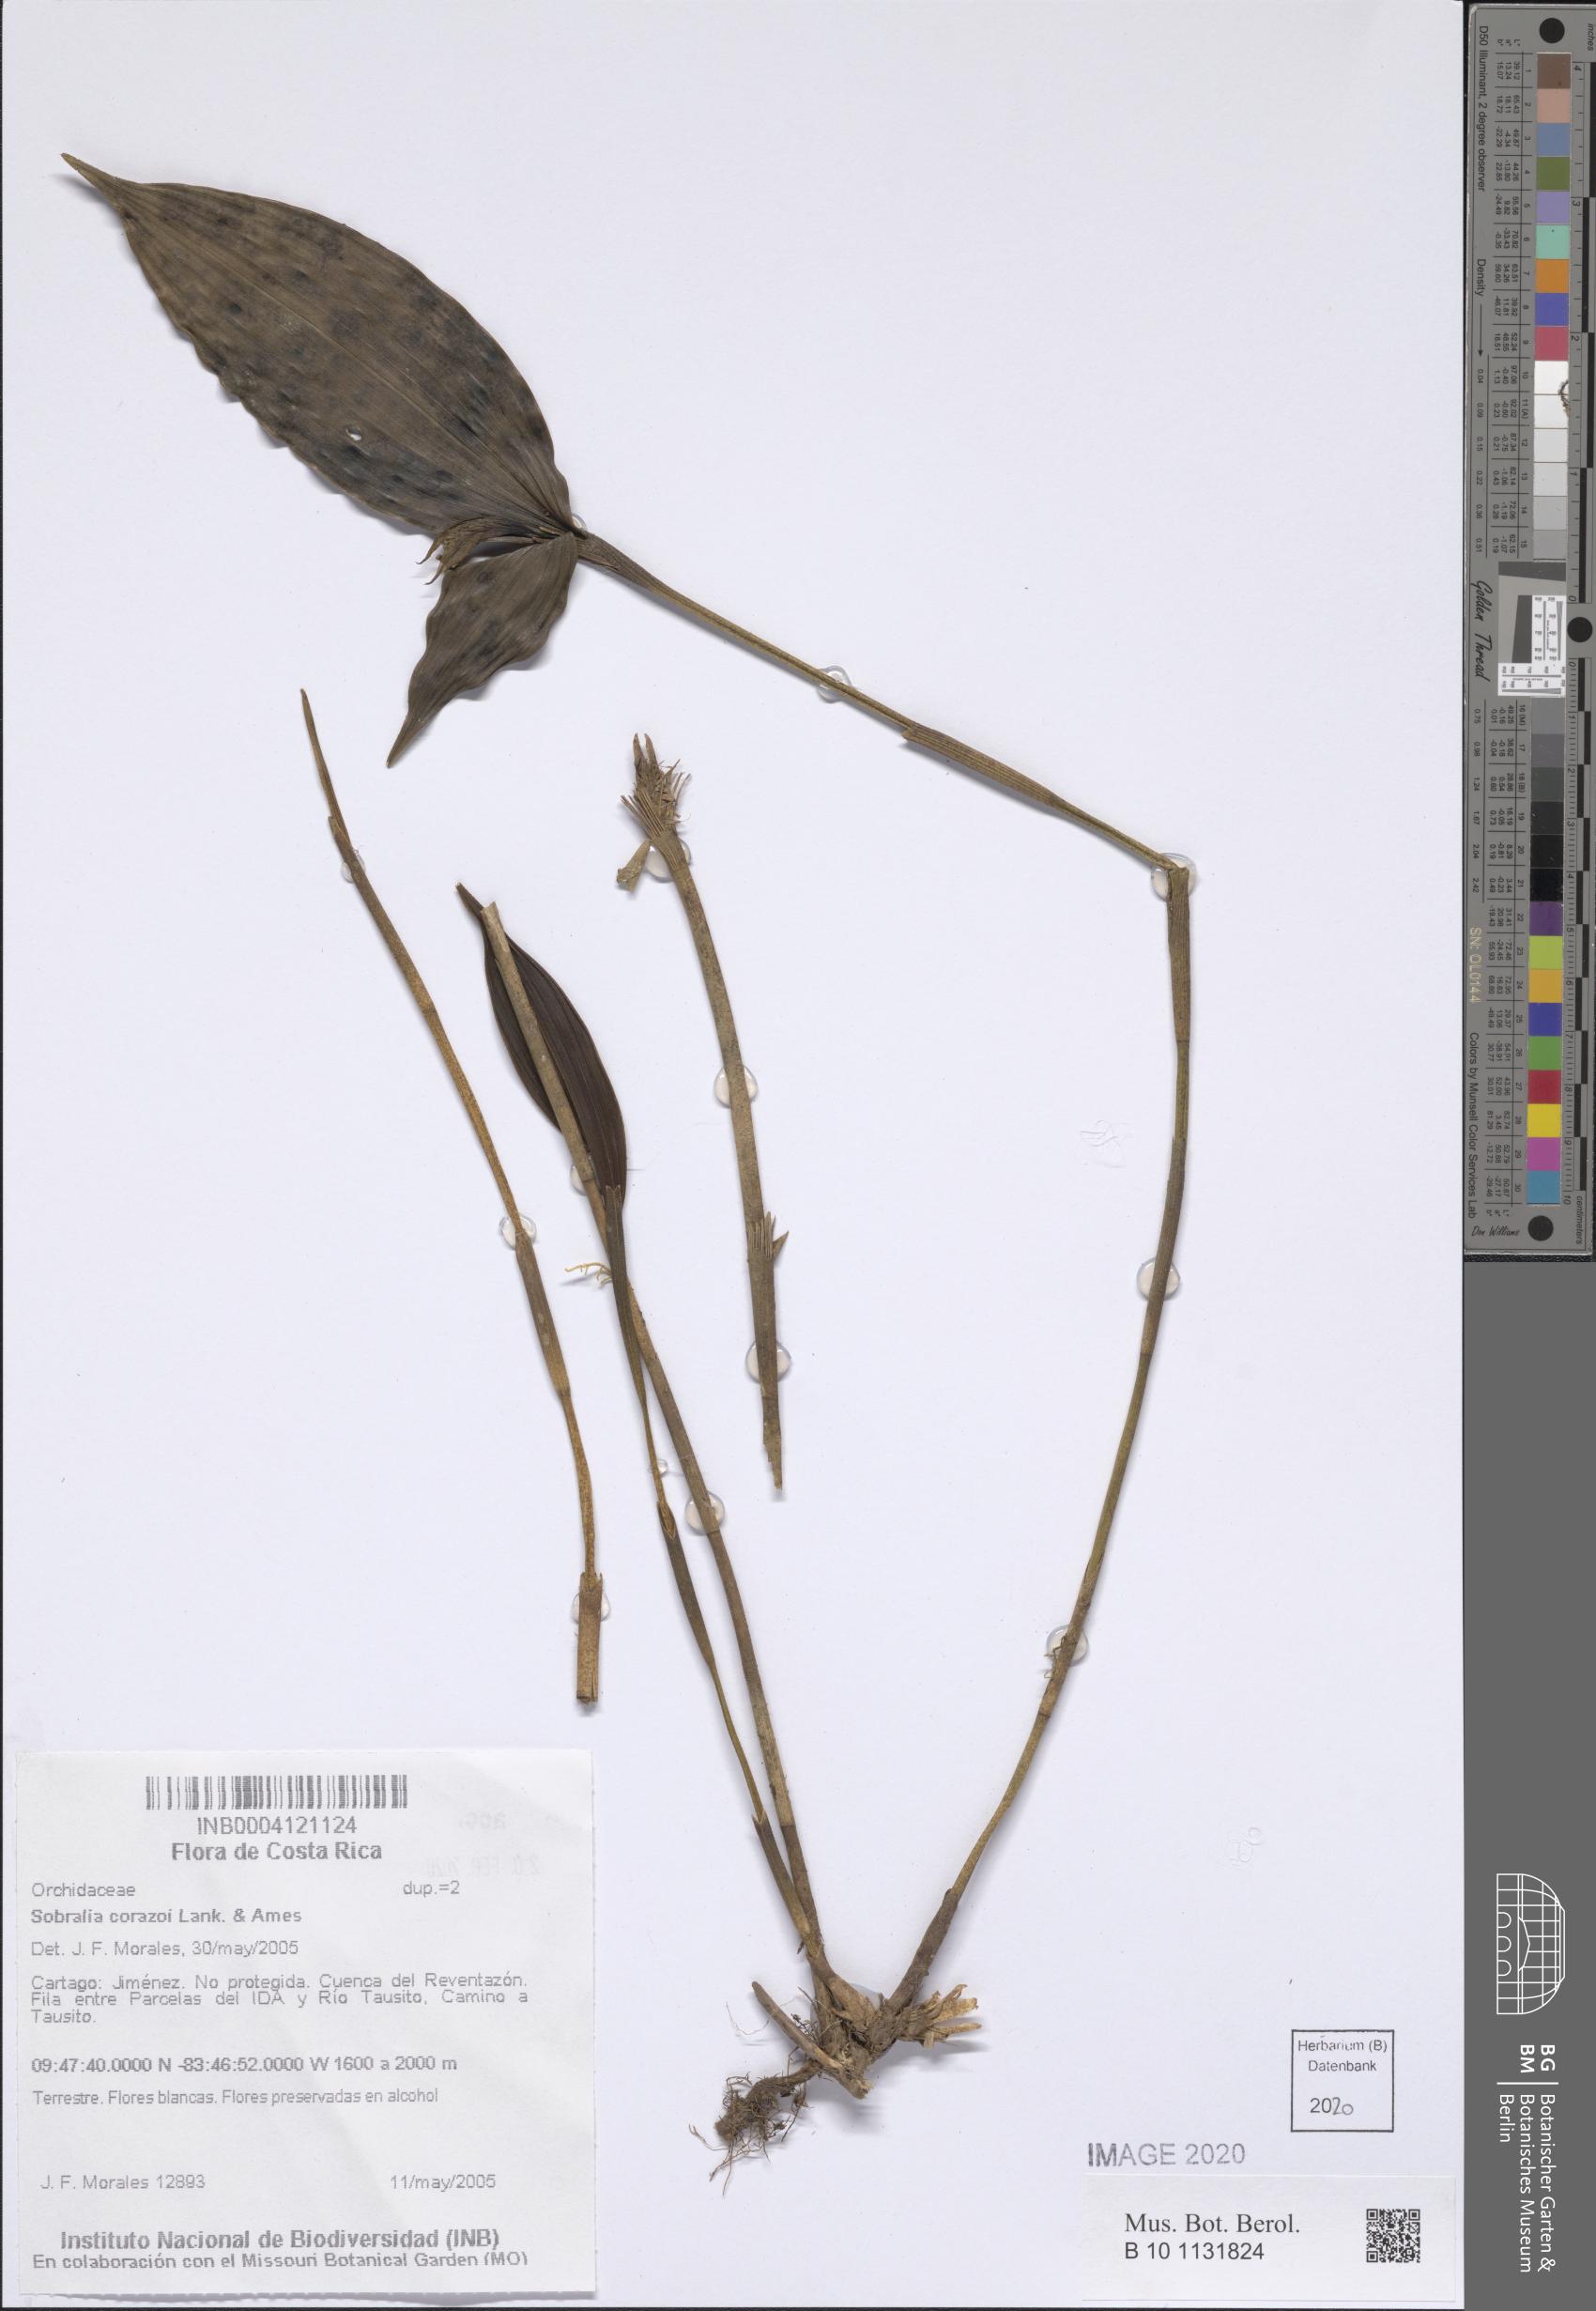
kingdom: Plantae
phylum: Tracheophyta
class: Liliopsida
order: Asparagales
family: Orchidaceae
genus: Sobralia
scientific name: Sobralia corazoi
